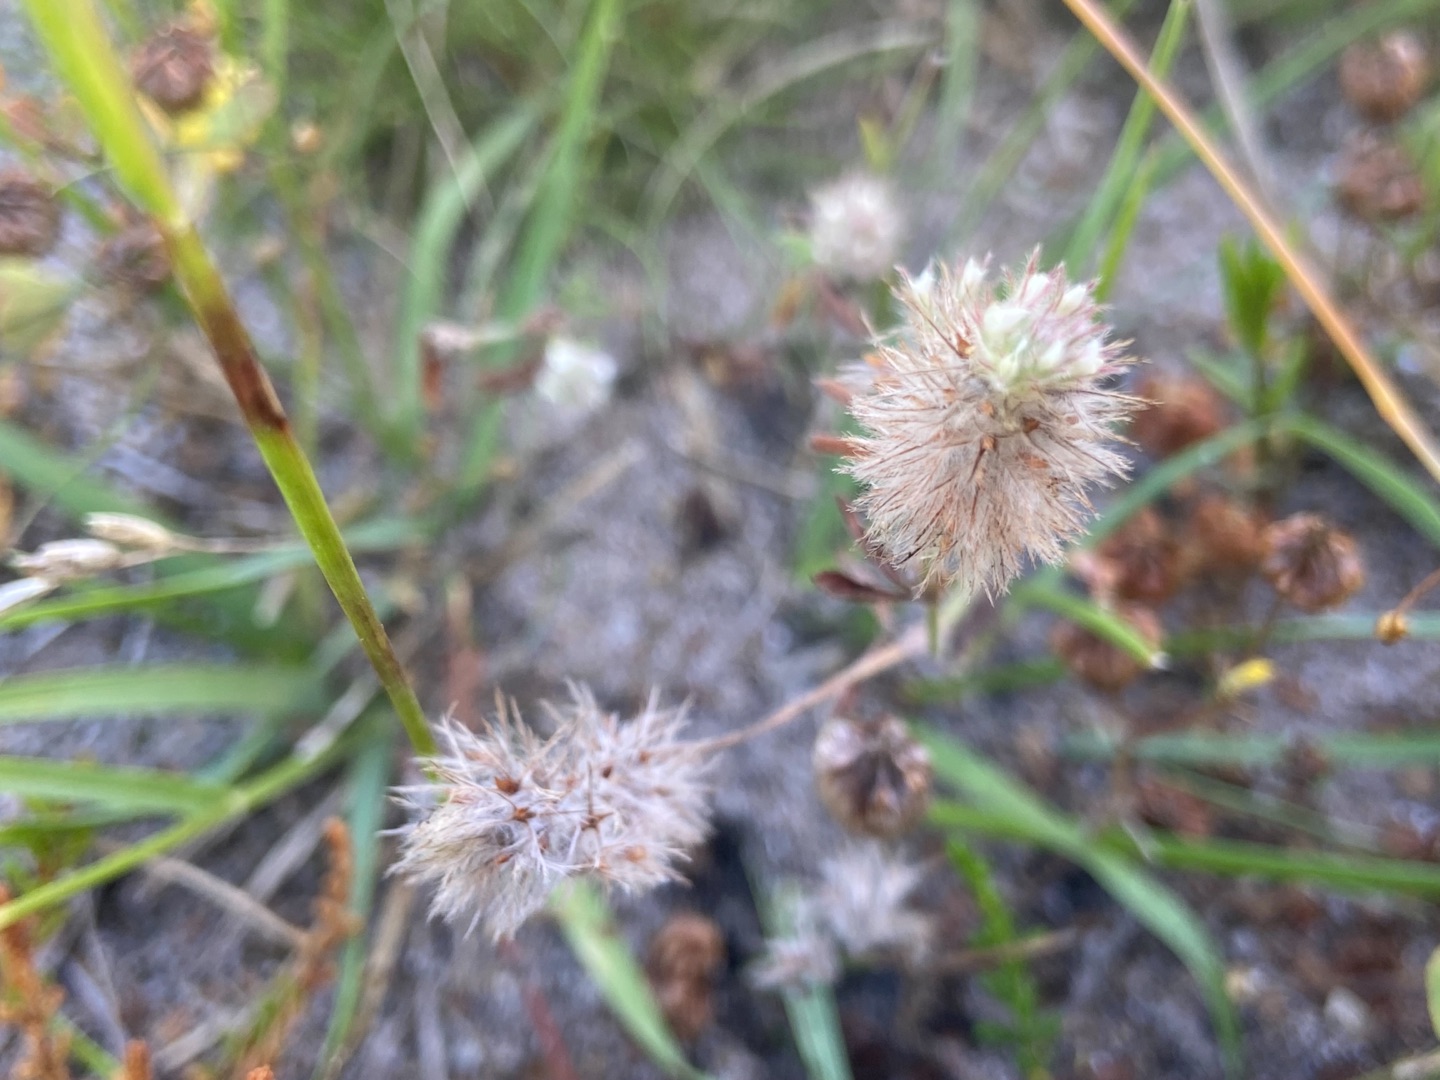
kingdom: Plantae
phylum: Tracheophyta
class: Magnoliopsida
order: Fabales
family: Fabaceae
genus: Trifolium
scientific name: Trifolium arvense
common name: Hare-kløver
